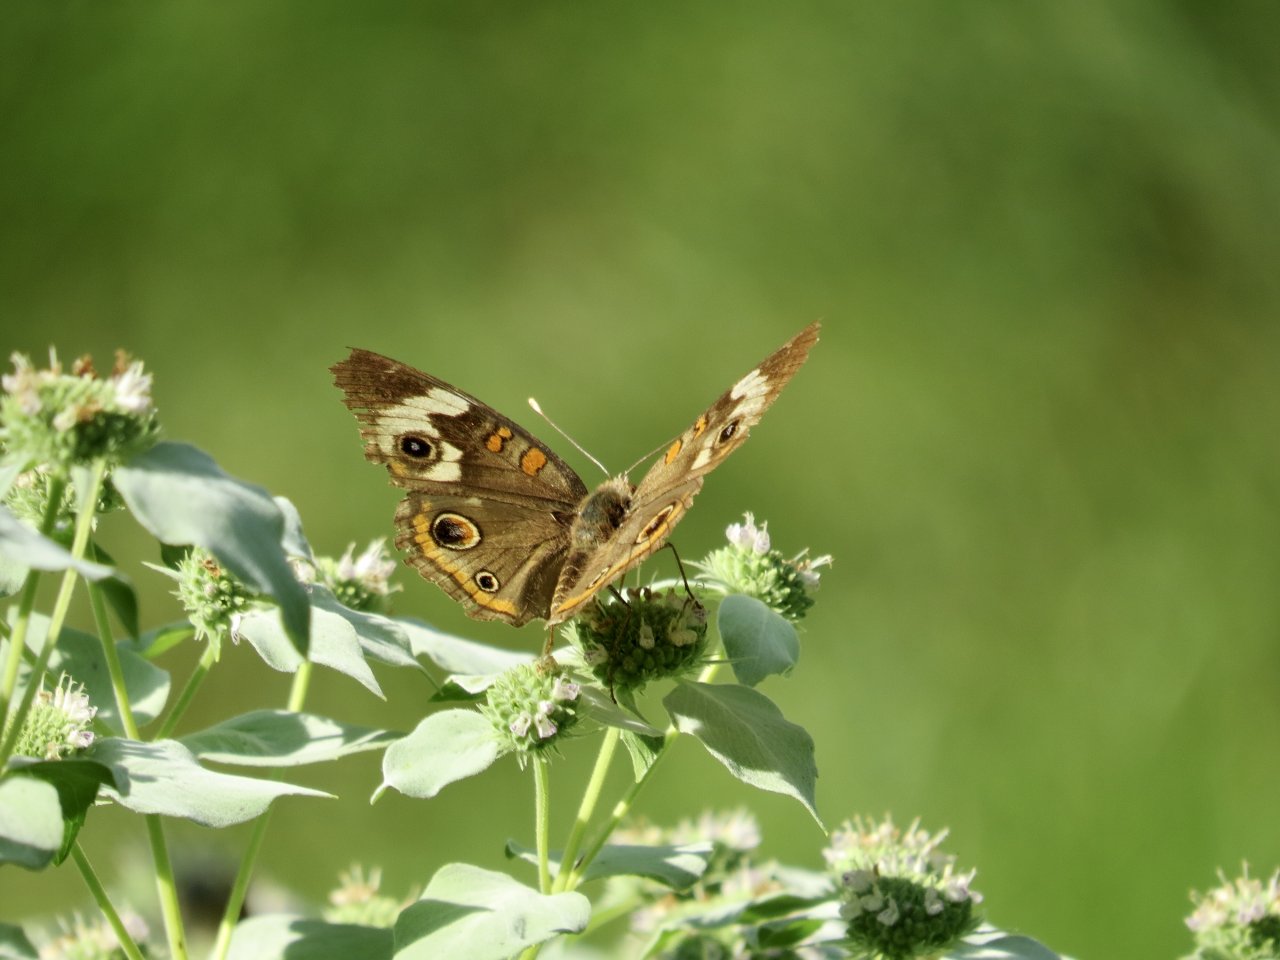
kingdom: Animalia
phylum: Arthropoda
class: Insecta
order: Lepidoptera
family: Nymphalidae
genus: Junonia
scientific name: Junonia coenia
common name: Common Buckeye
